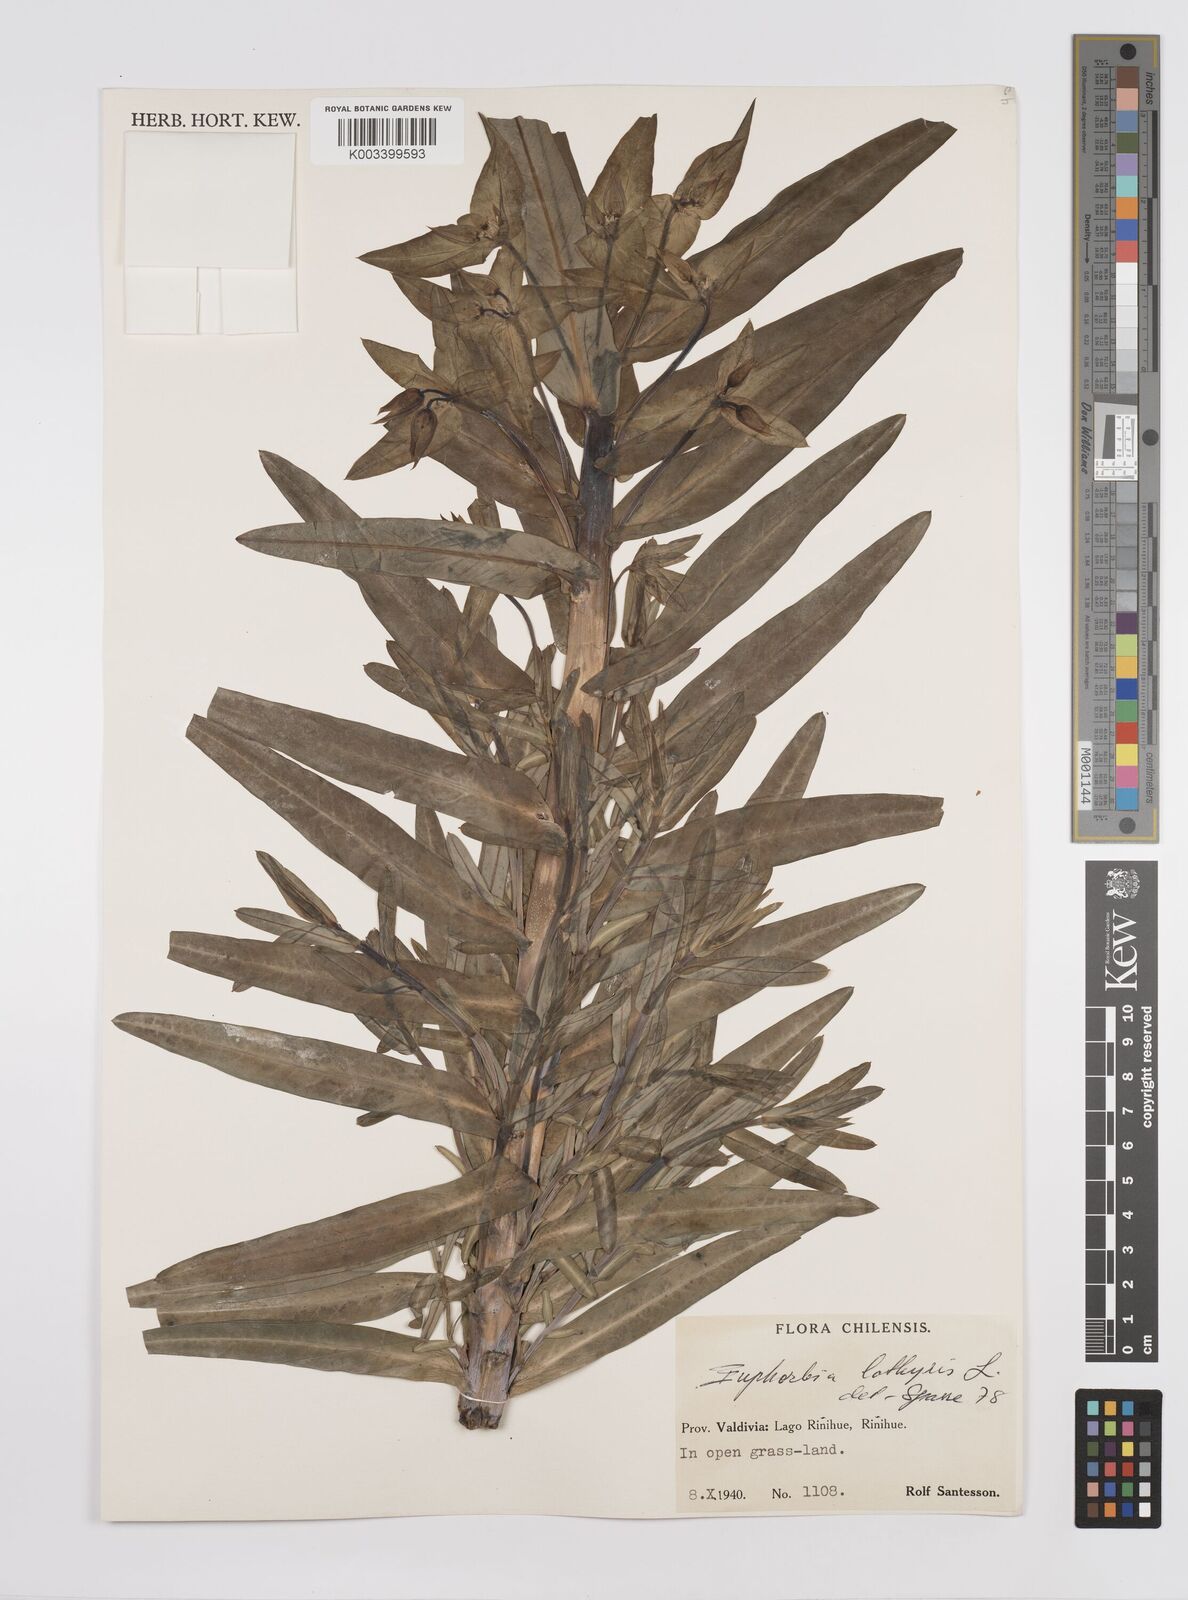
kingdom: Plantae
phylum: Tracheophyta
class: Magnoliopsida
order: Malpighiales
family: Euphorbiaceae
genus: Euphorbia
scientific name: Euphorbia
